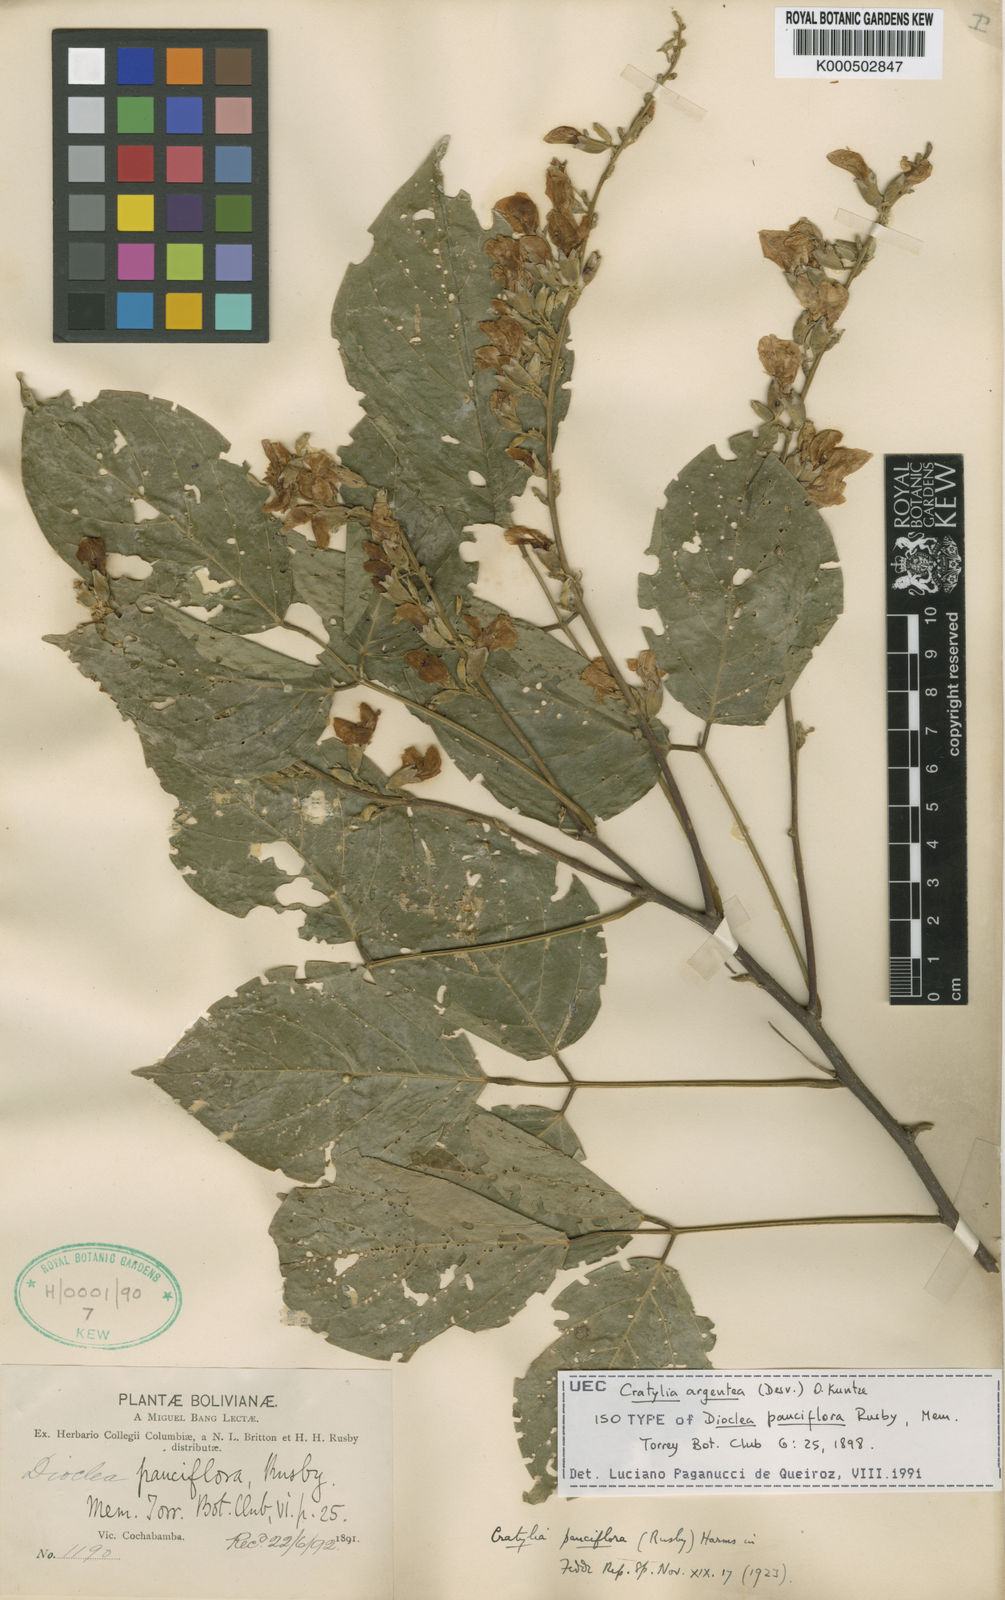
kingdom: Plantae
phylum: Tracheophyta
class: Magnoliopsida
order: Fabales
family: Fabaceae
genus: Cratylia
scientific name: Cratylia argentea
